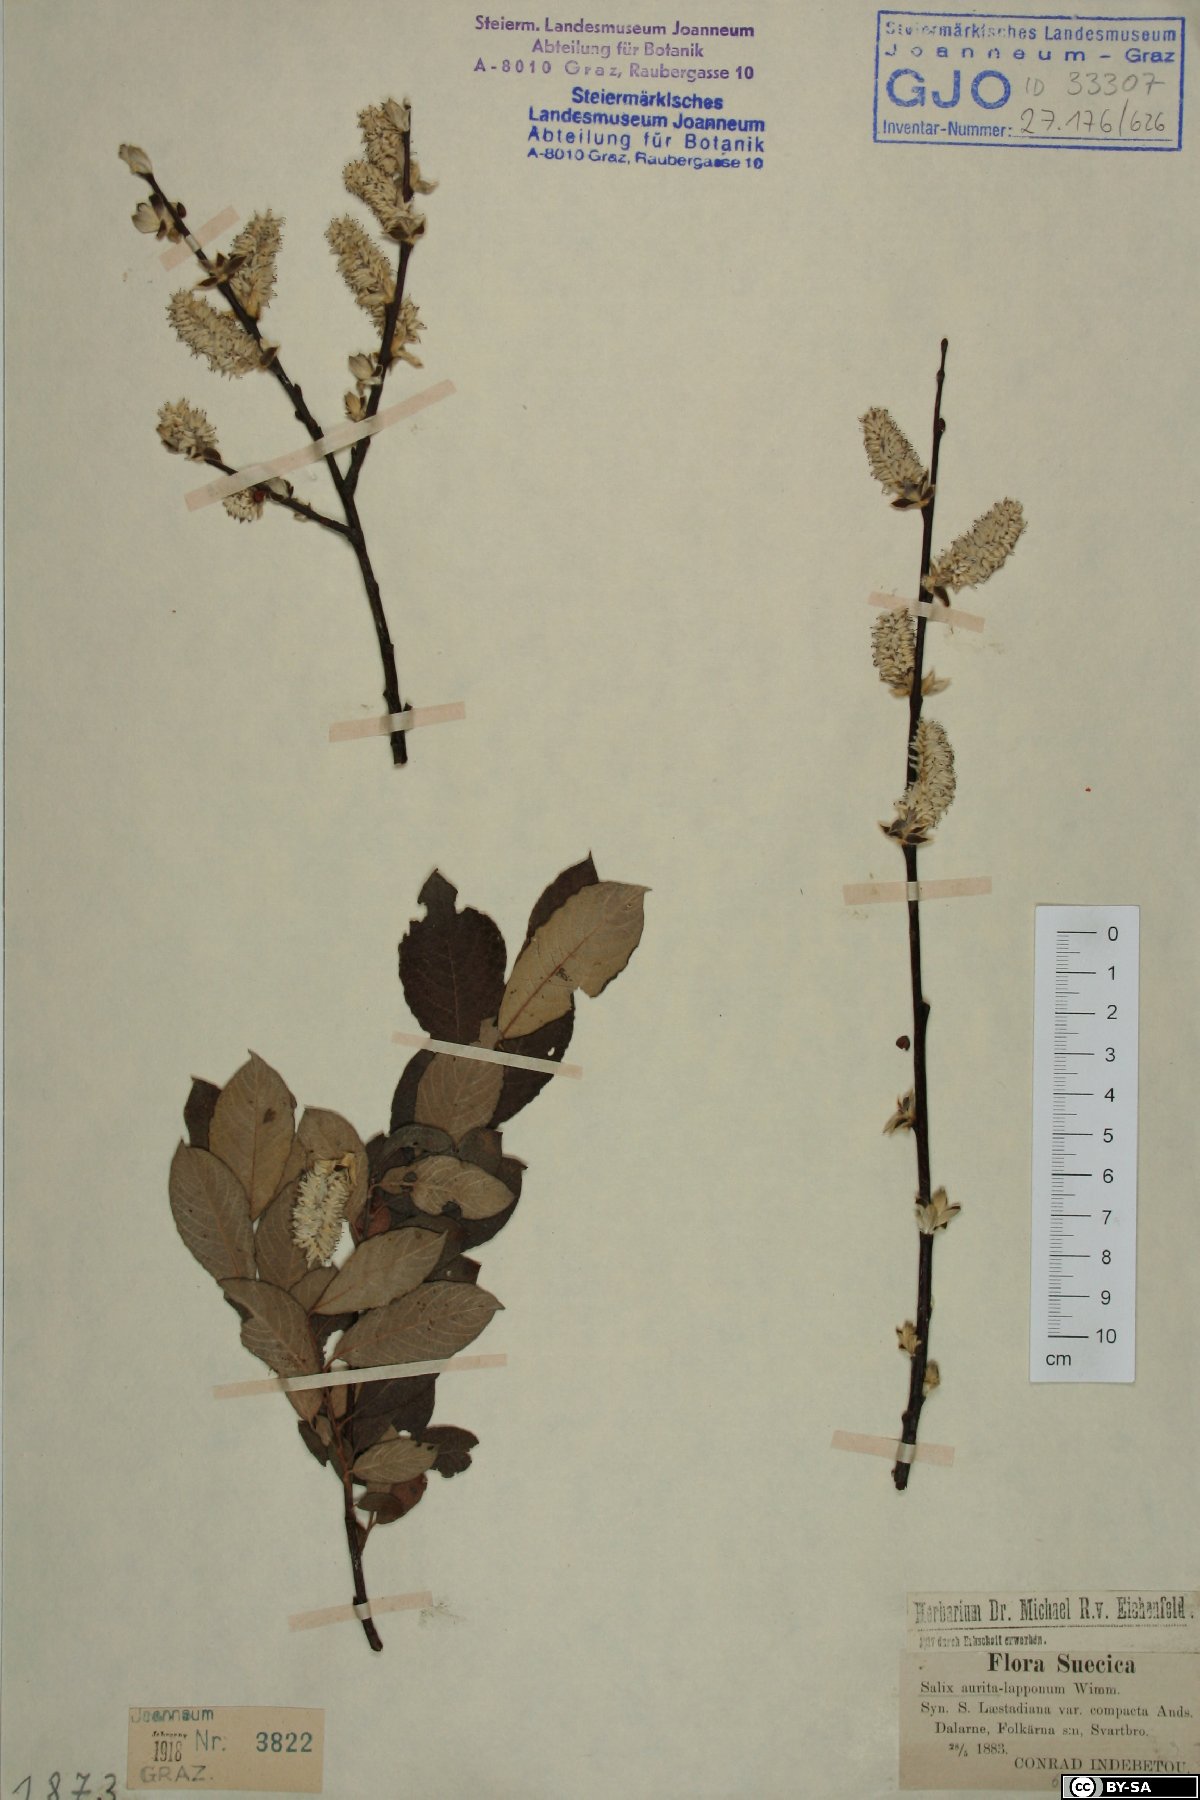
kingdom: Plantae
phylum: Tracheophyta
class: Magnoliopsida
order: Malpighiales
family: Salicaceae
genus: Salix
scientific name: Salix aurita
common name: Eared willow
